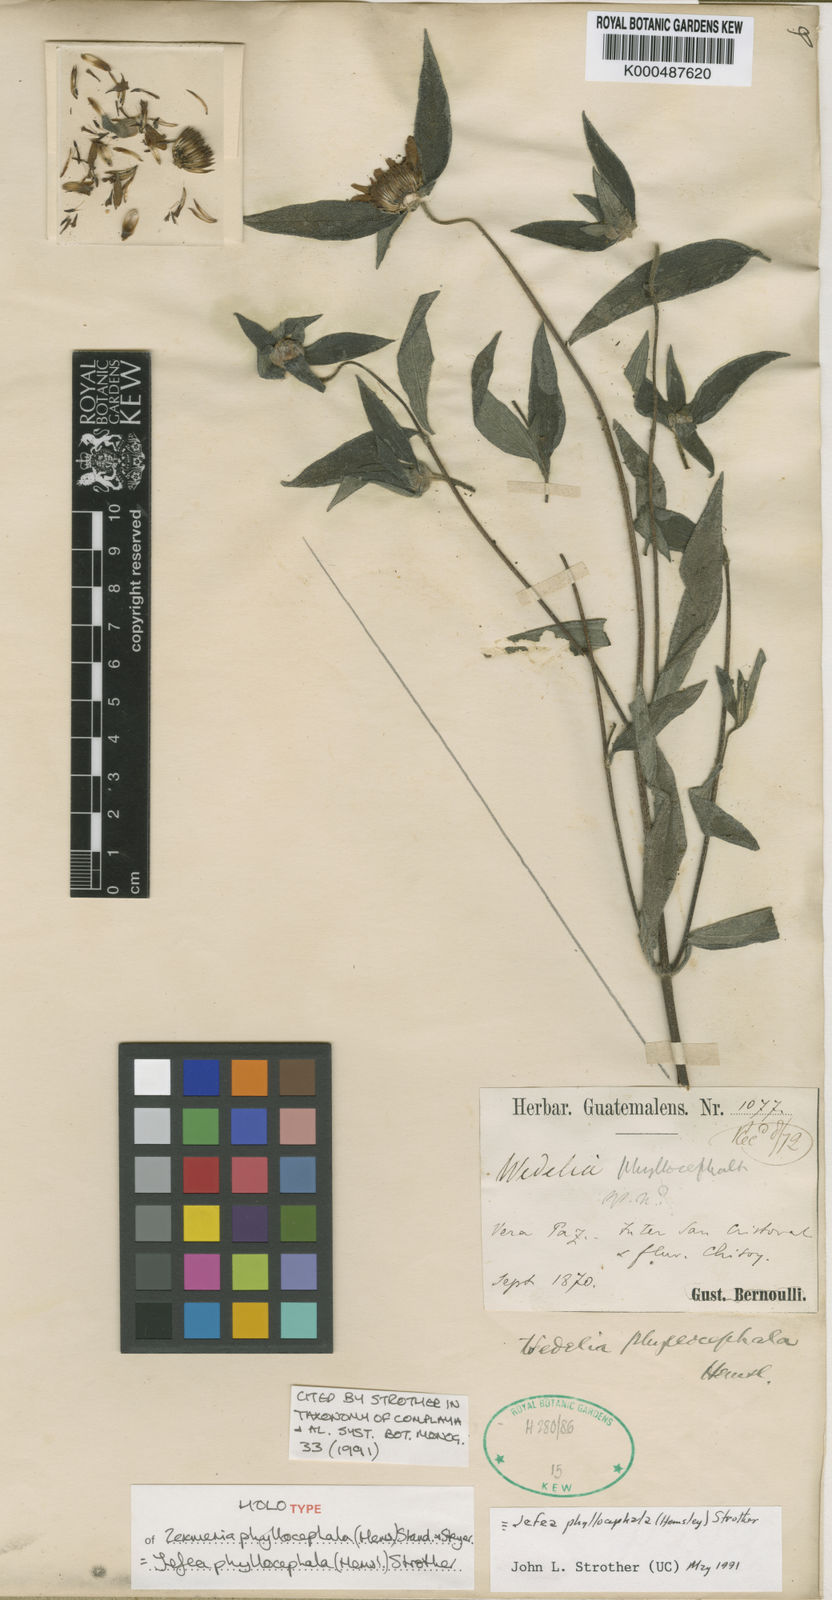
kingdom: Plantae
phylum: Tracheophyta
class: Magnoliopsida
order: Asterales
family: Asteraceae
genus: Jefea
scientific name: Jefea phyllocephala
